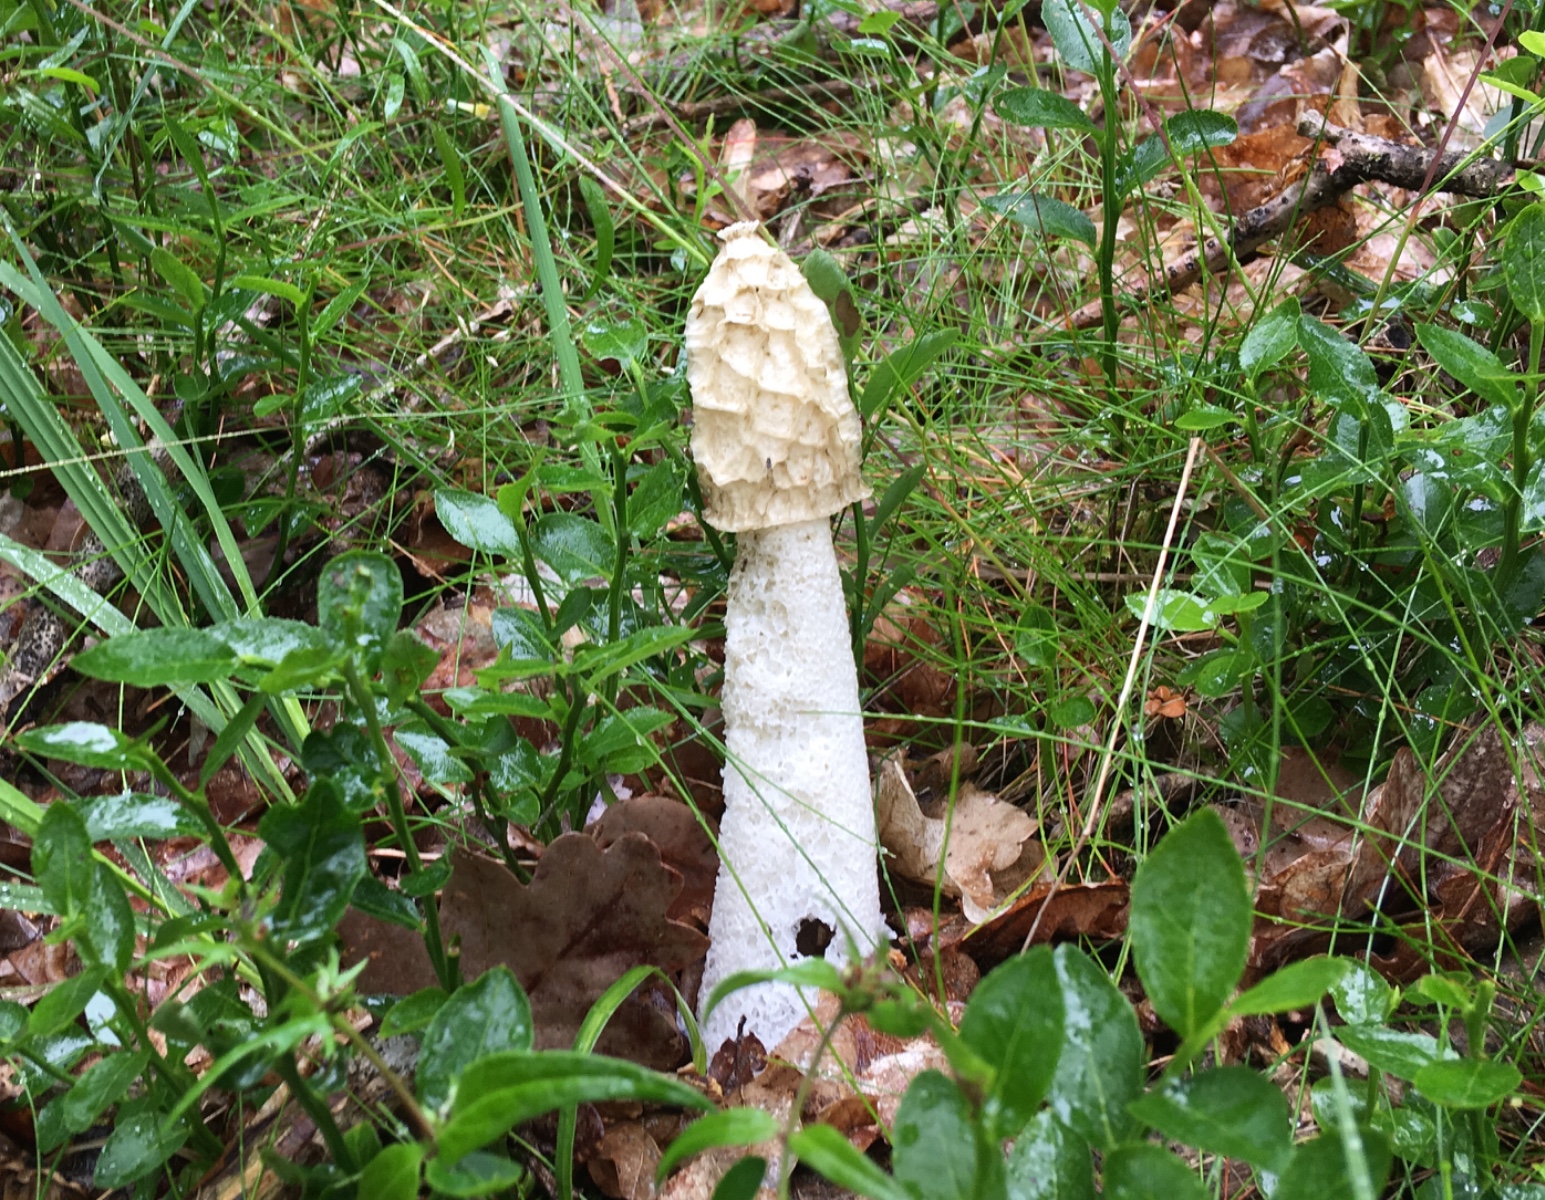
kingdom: Fungi
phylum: Basidiomycota
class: Agaricomycetes
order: Phallales
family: Phallaceae
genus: Phallus
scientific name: Phallus impudicus
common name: almindelig stinksvamp
